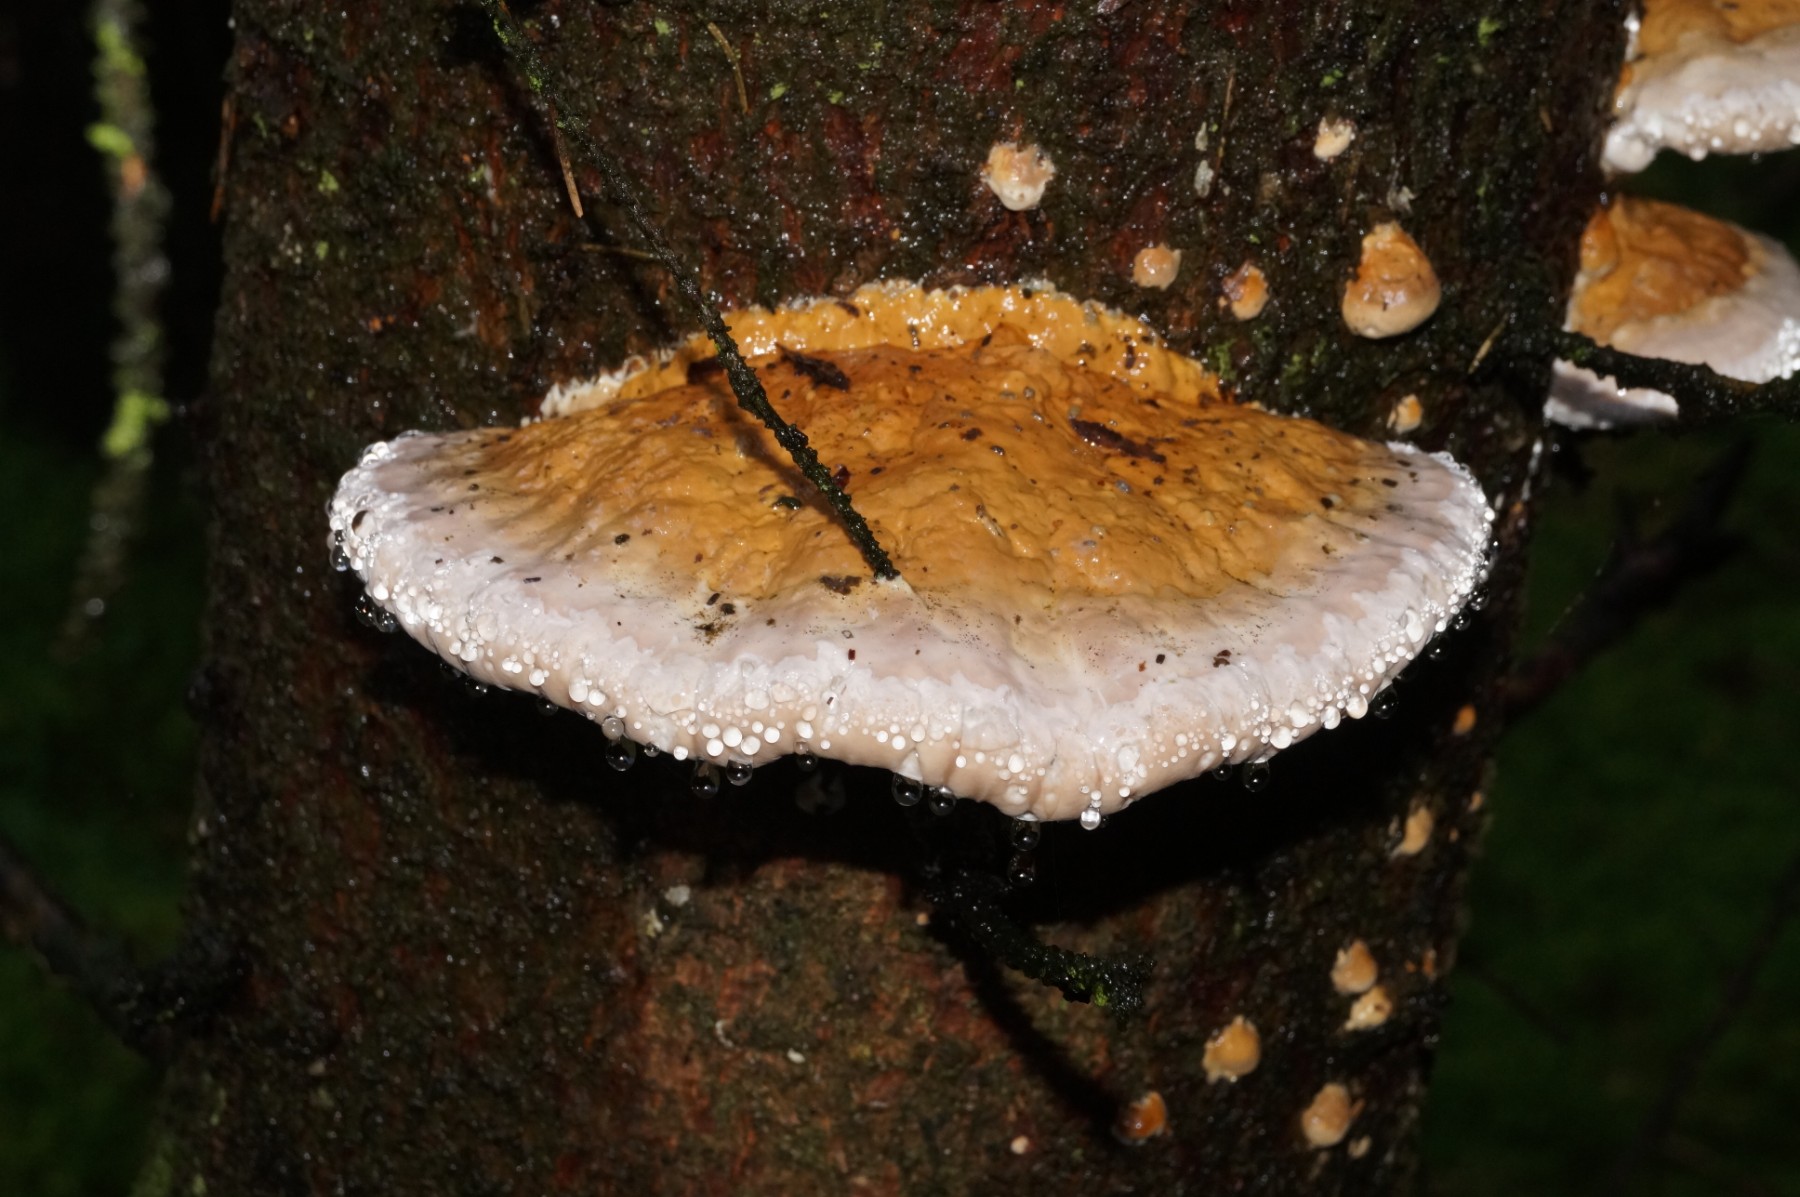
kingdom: Fungi
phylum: Basidiomycota
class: Agaricomycetes
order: Polyporales
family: Fomitopsidaceae
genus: Fomitopsis
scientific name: Fomitopsis pinicola
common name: randbæltet hovporesvamp
